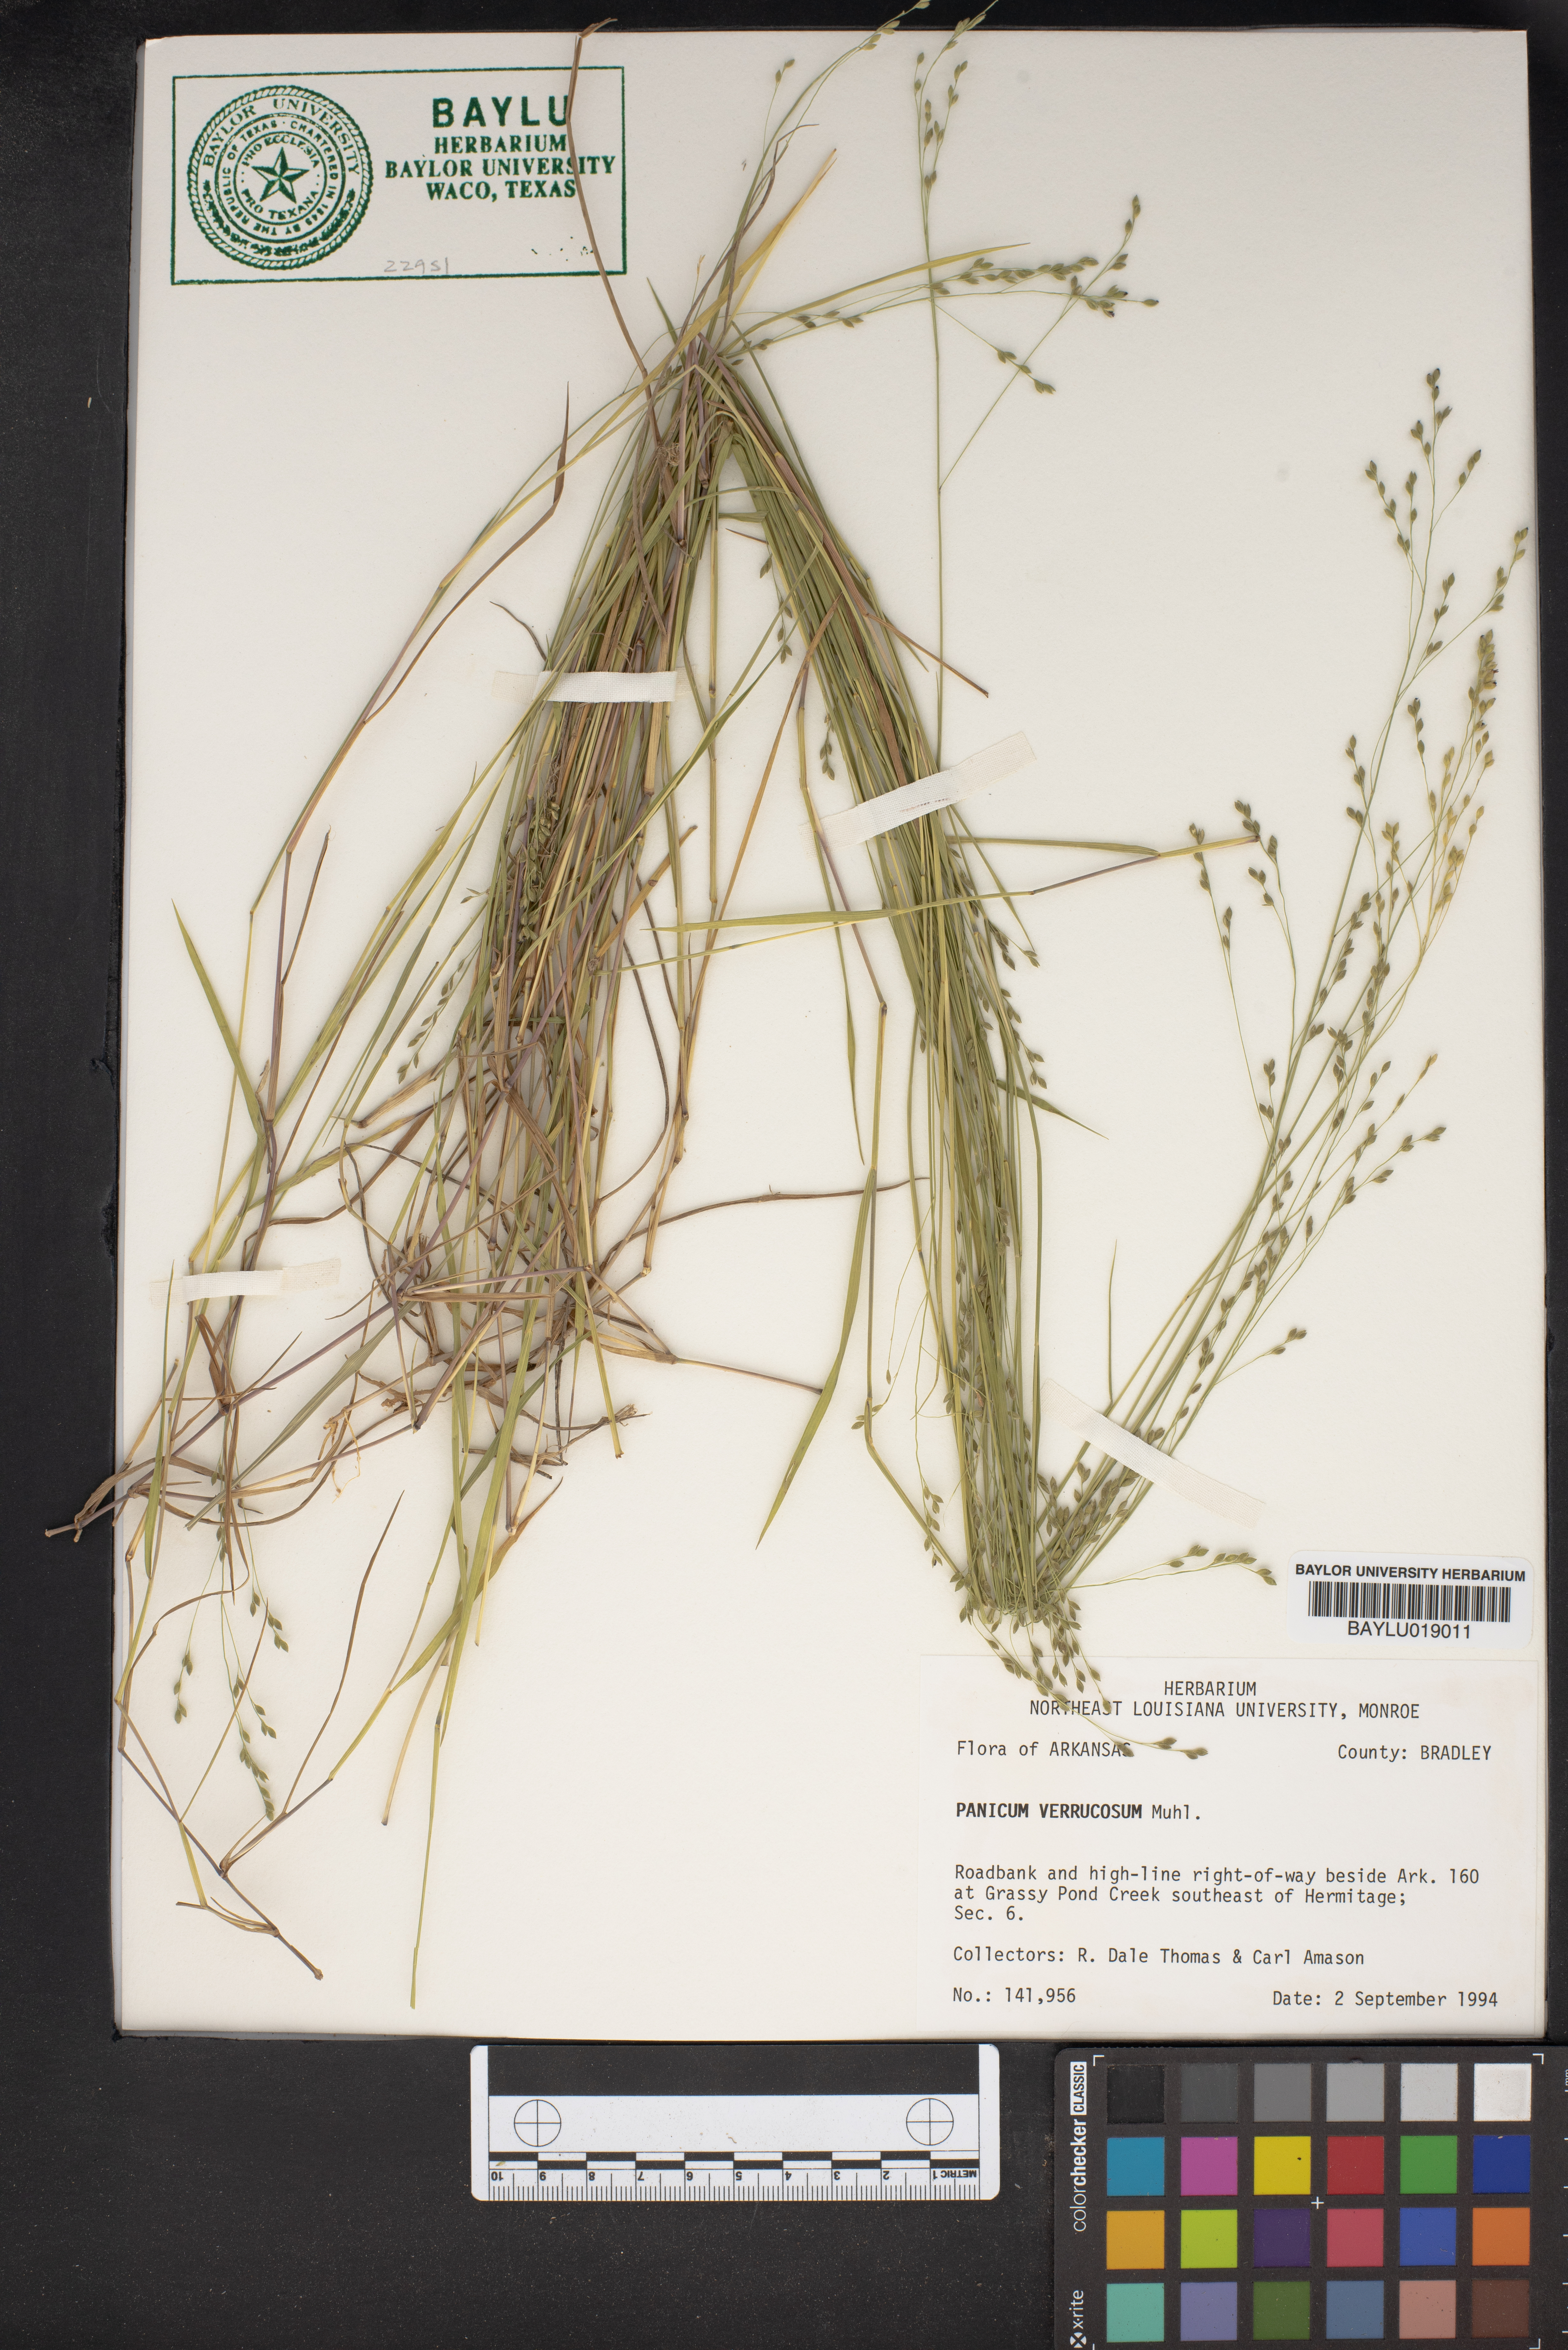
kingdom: Plantae
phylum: Tracheophyta
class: Liliopsida
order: Poales
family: Poaceae
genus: Kellochloa
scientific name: Kellochloa verrucosa
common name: Warty panic grass
